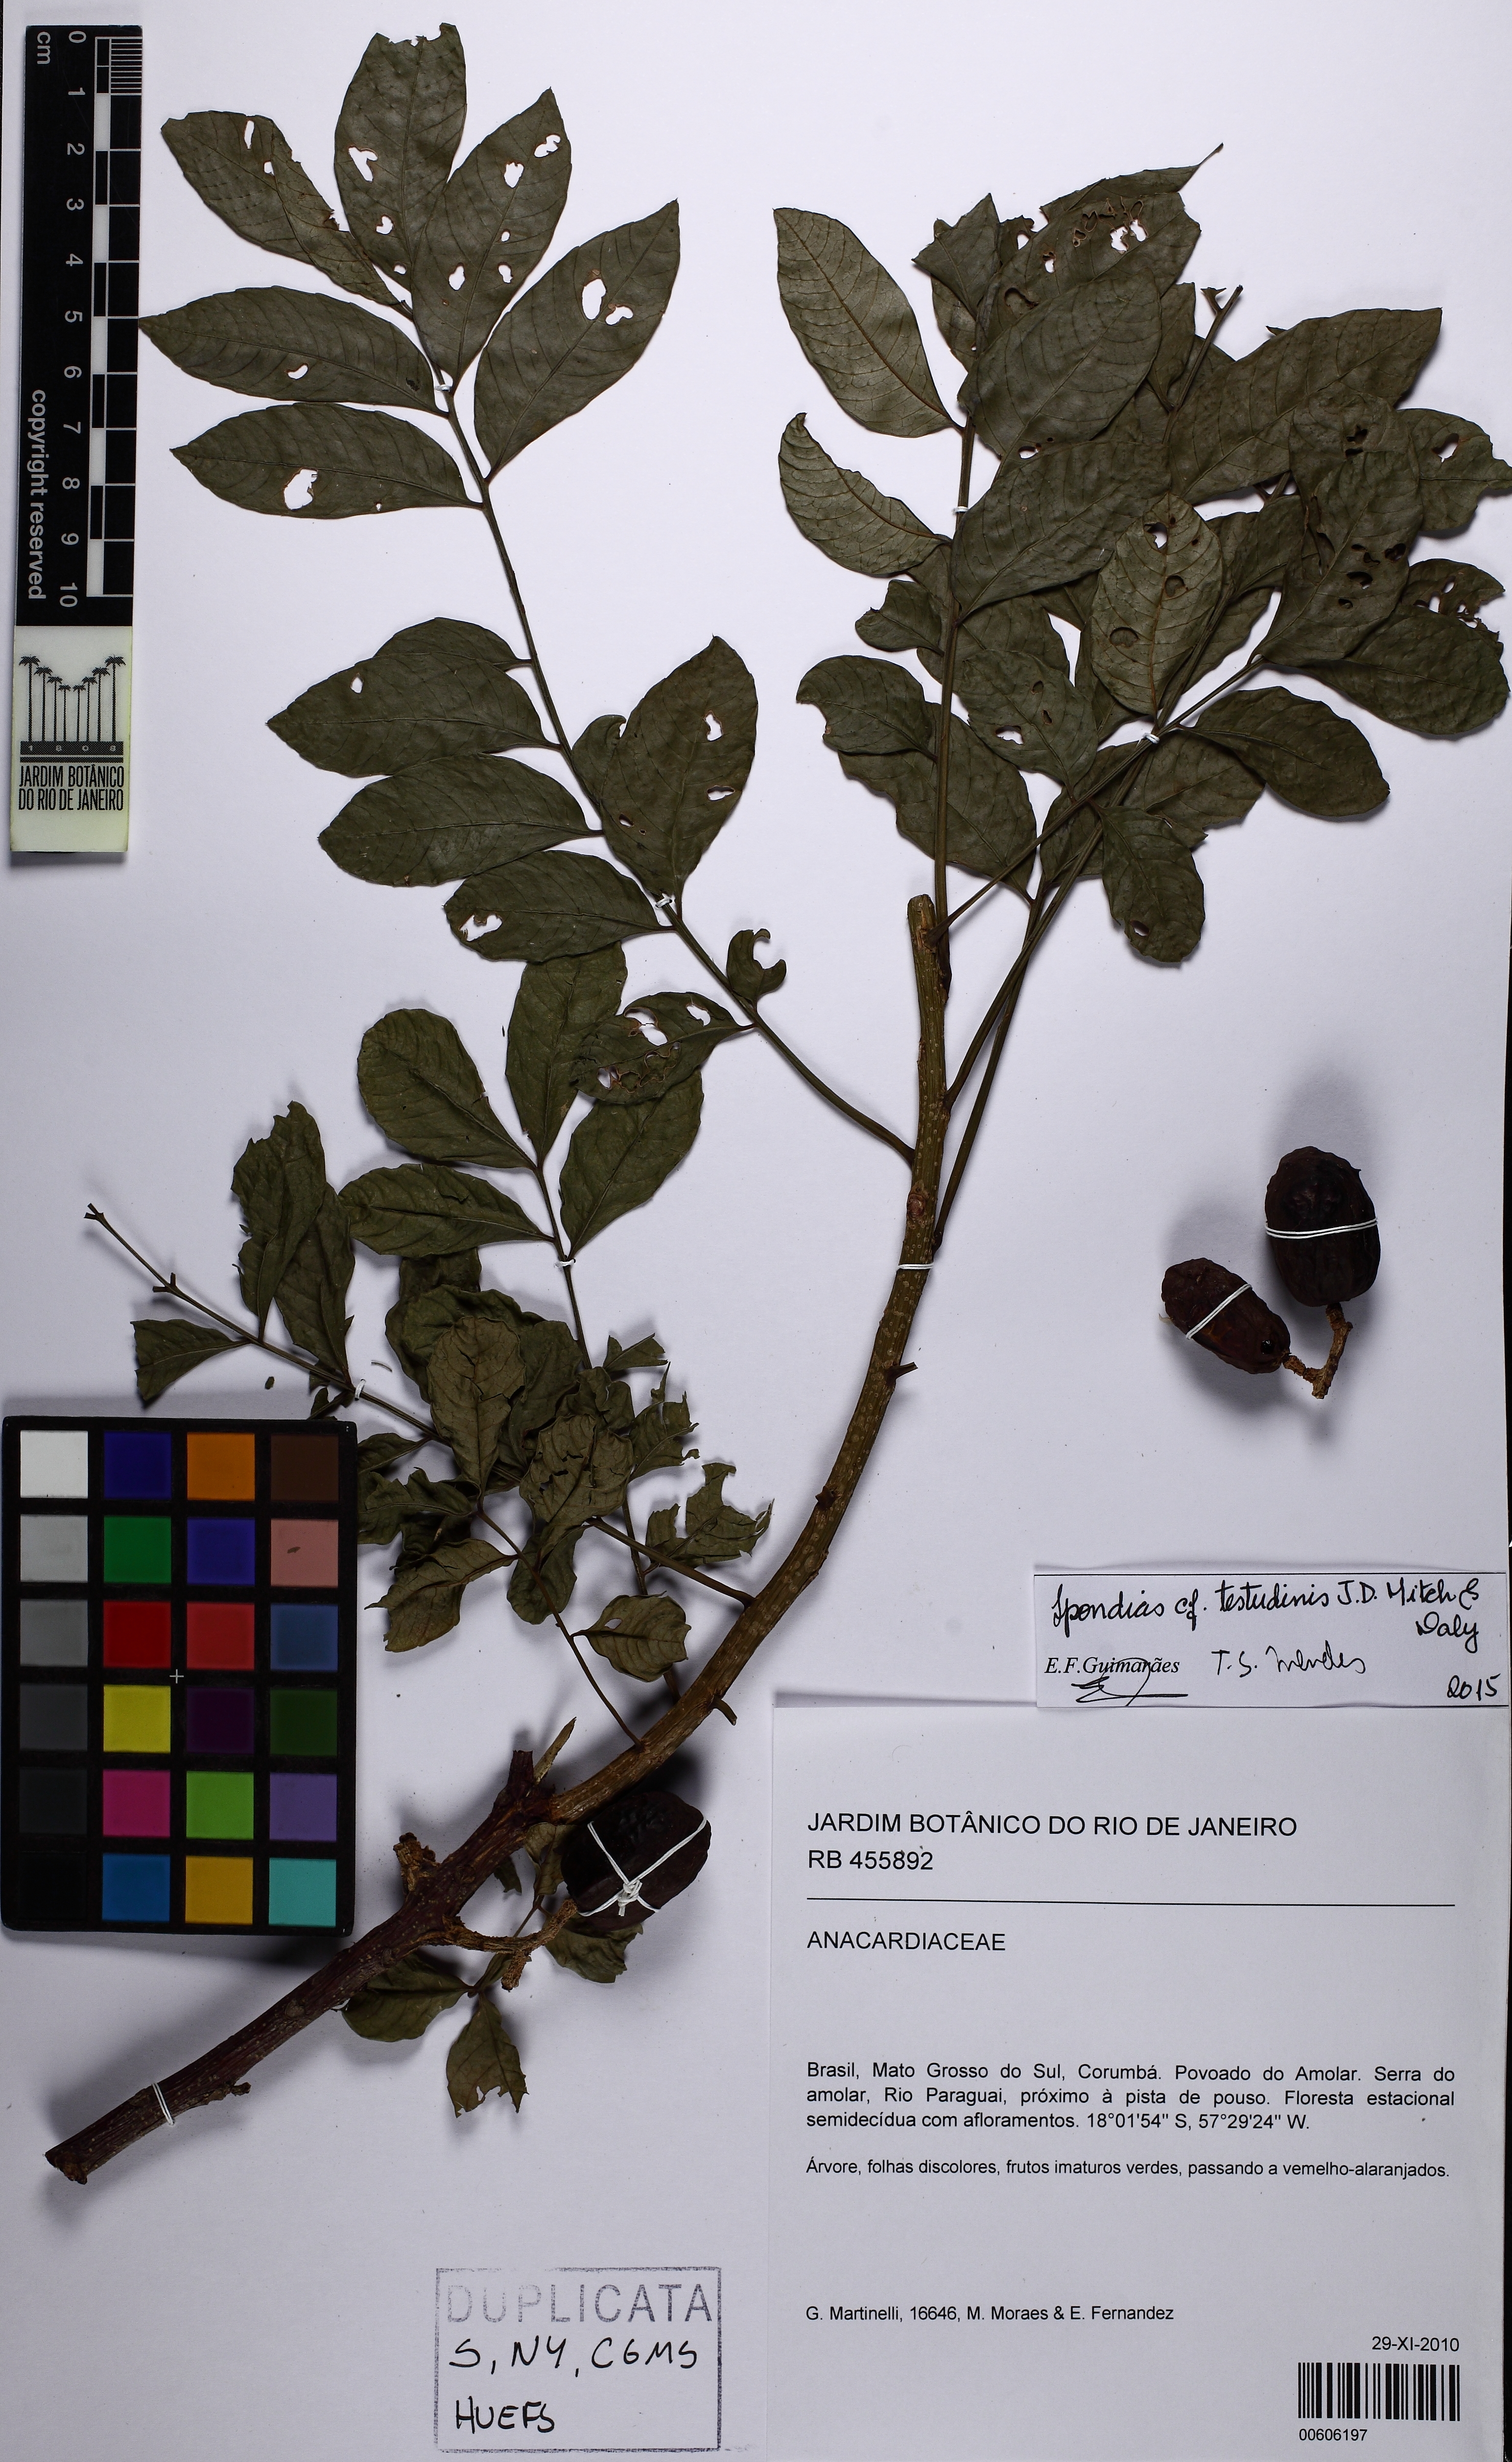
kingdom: Plantae
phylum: Tracheophyta
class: Magnoliopsida
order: Sapindales
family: Anacardiaceae
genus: Spondias
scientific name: Spondias testudinis
